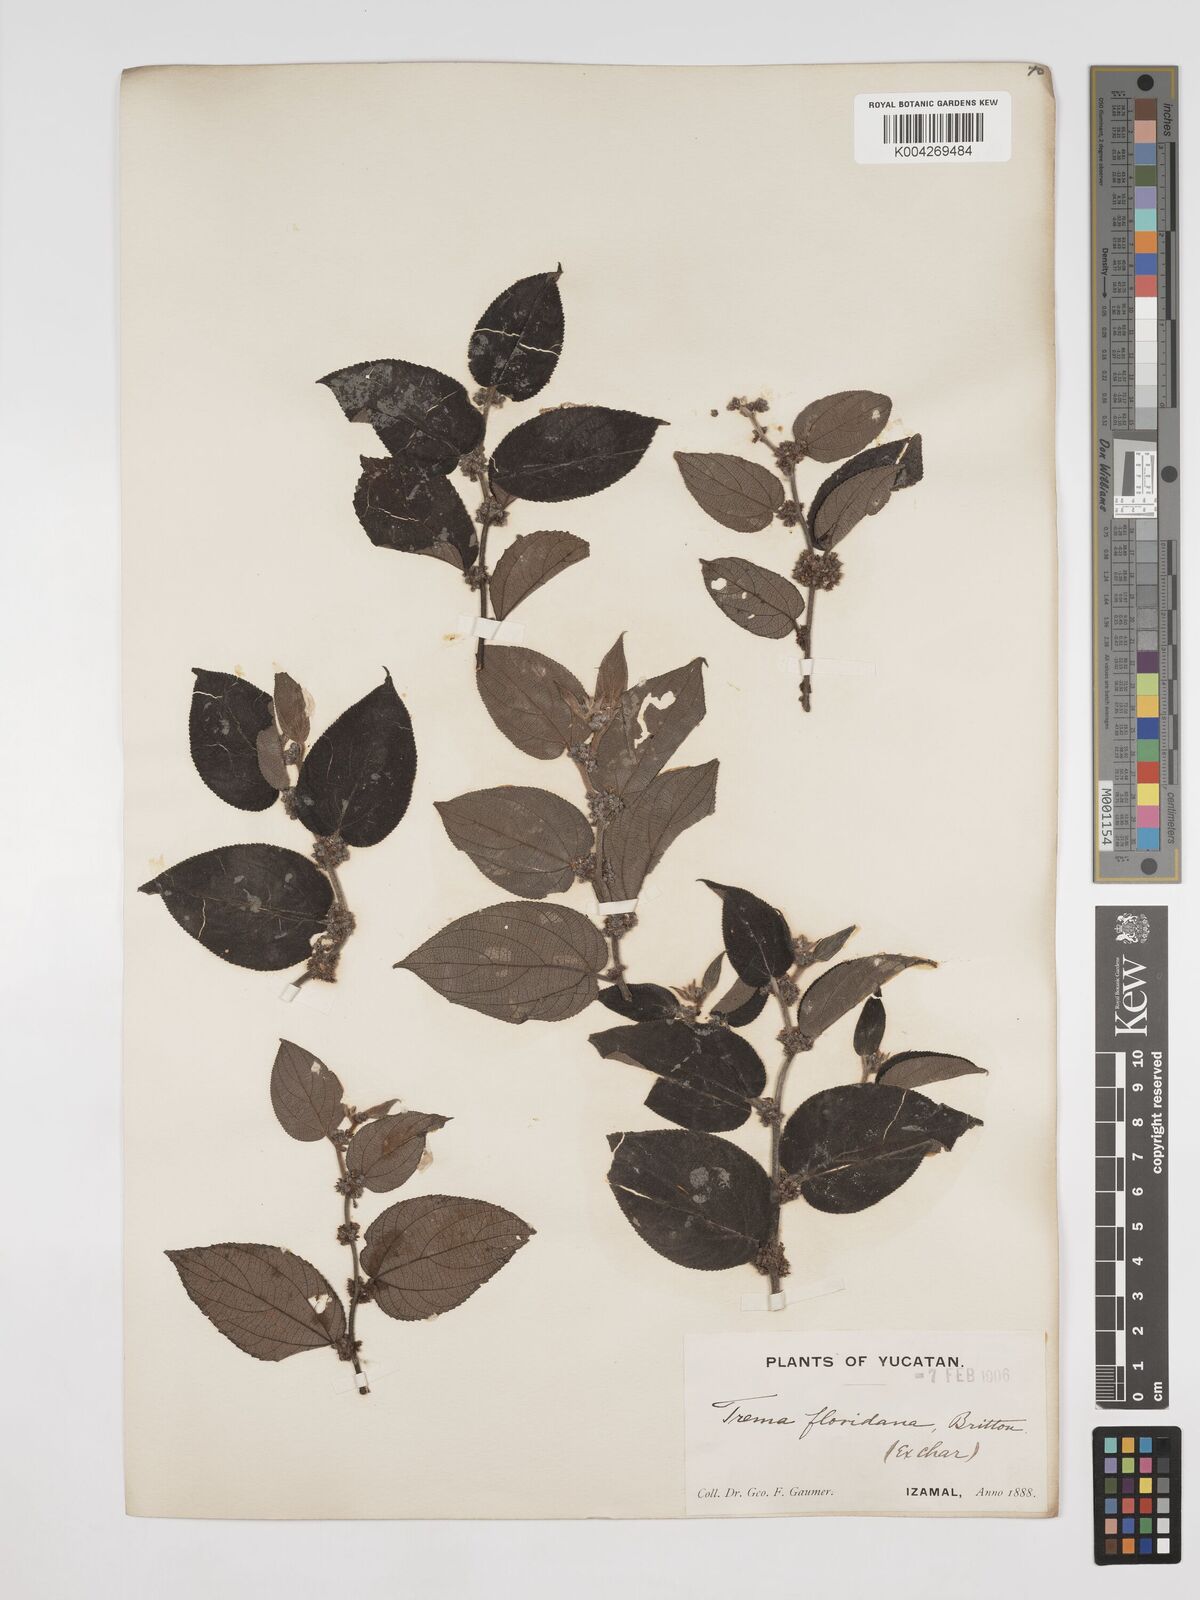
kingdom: Plantae
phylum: Tracheophyta
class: Magnoliopsida
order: Rosales
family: Cannabaceae
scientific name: Cannabaceae
